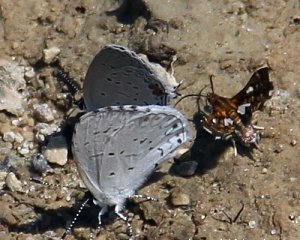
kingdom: Animalia
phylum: Arthropoda
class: Insecta
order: Lepidoptera
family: Lycaenidae
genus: Cyaniris
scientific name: Cyaniris neglecta
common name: Summer Azure
